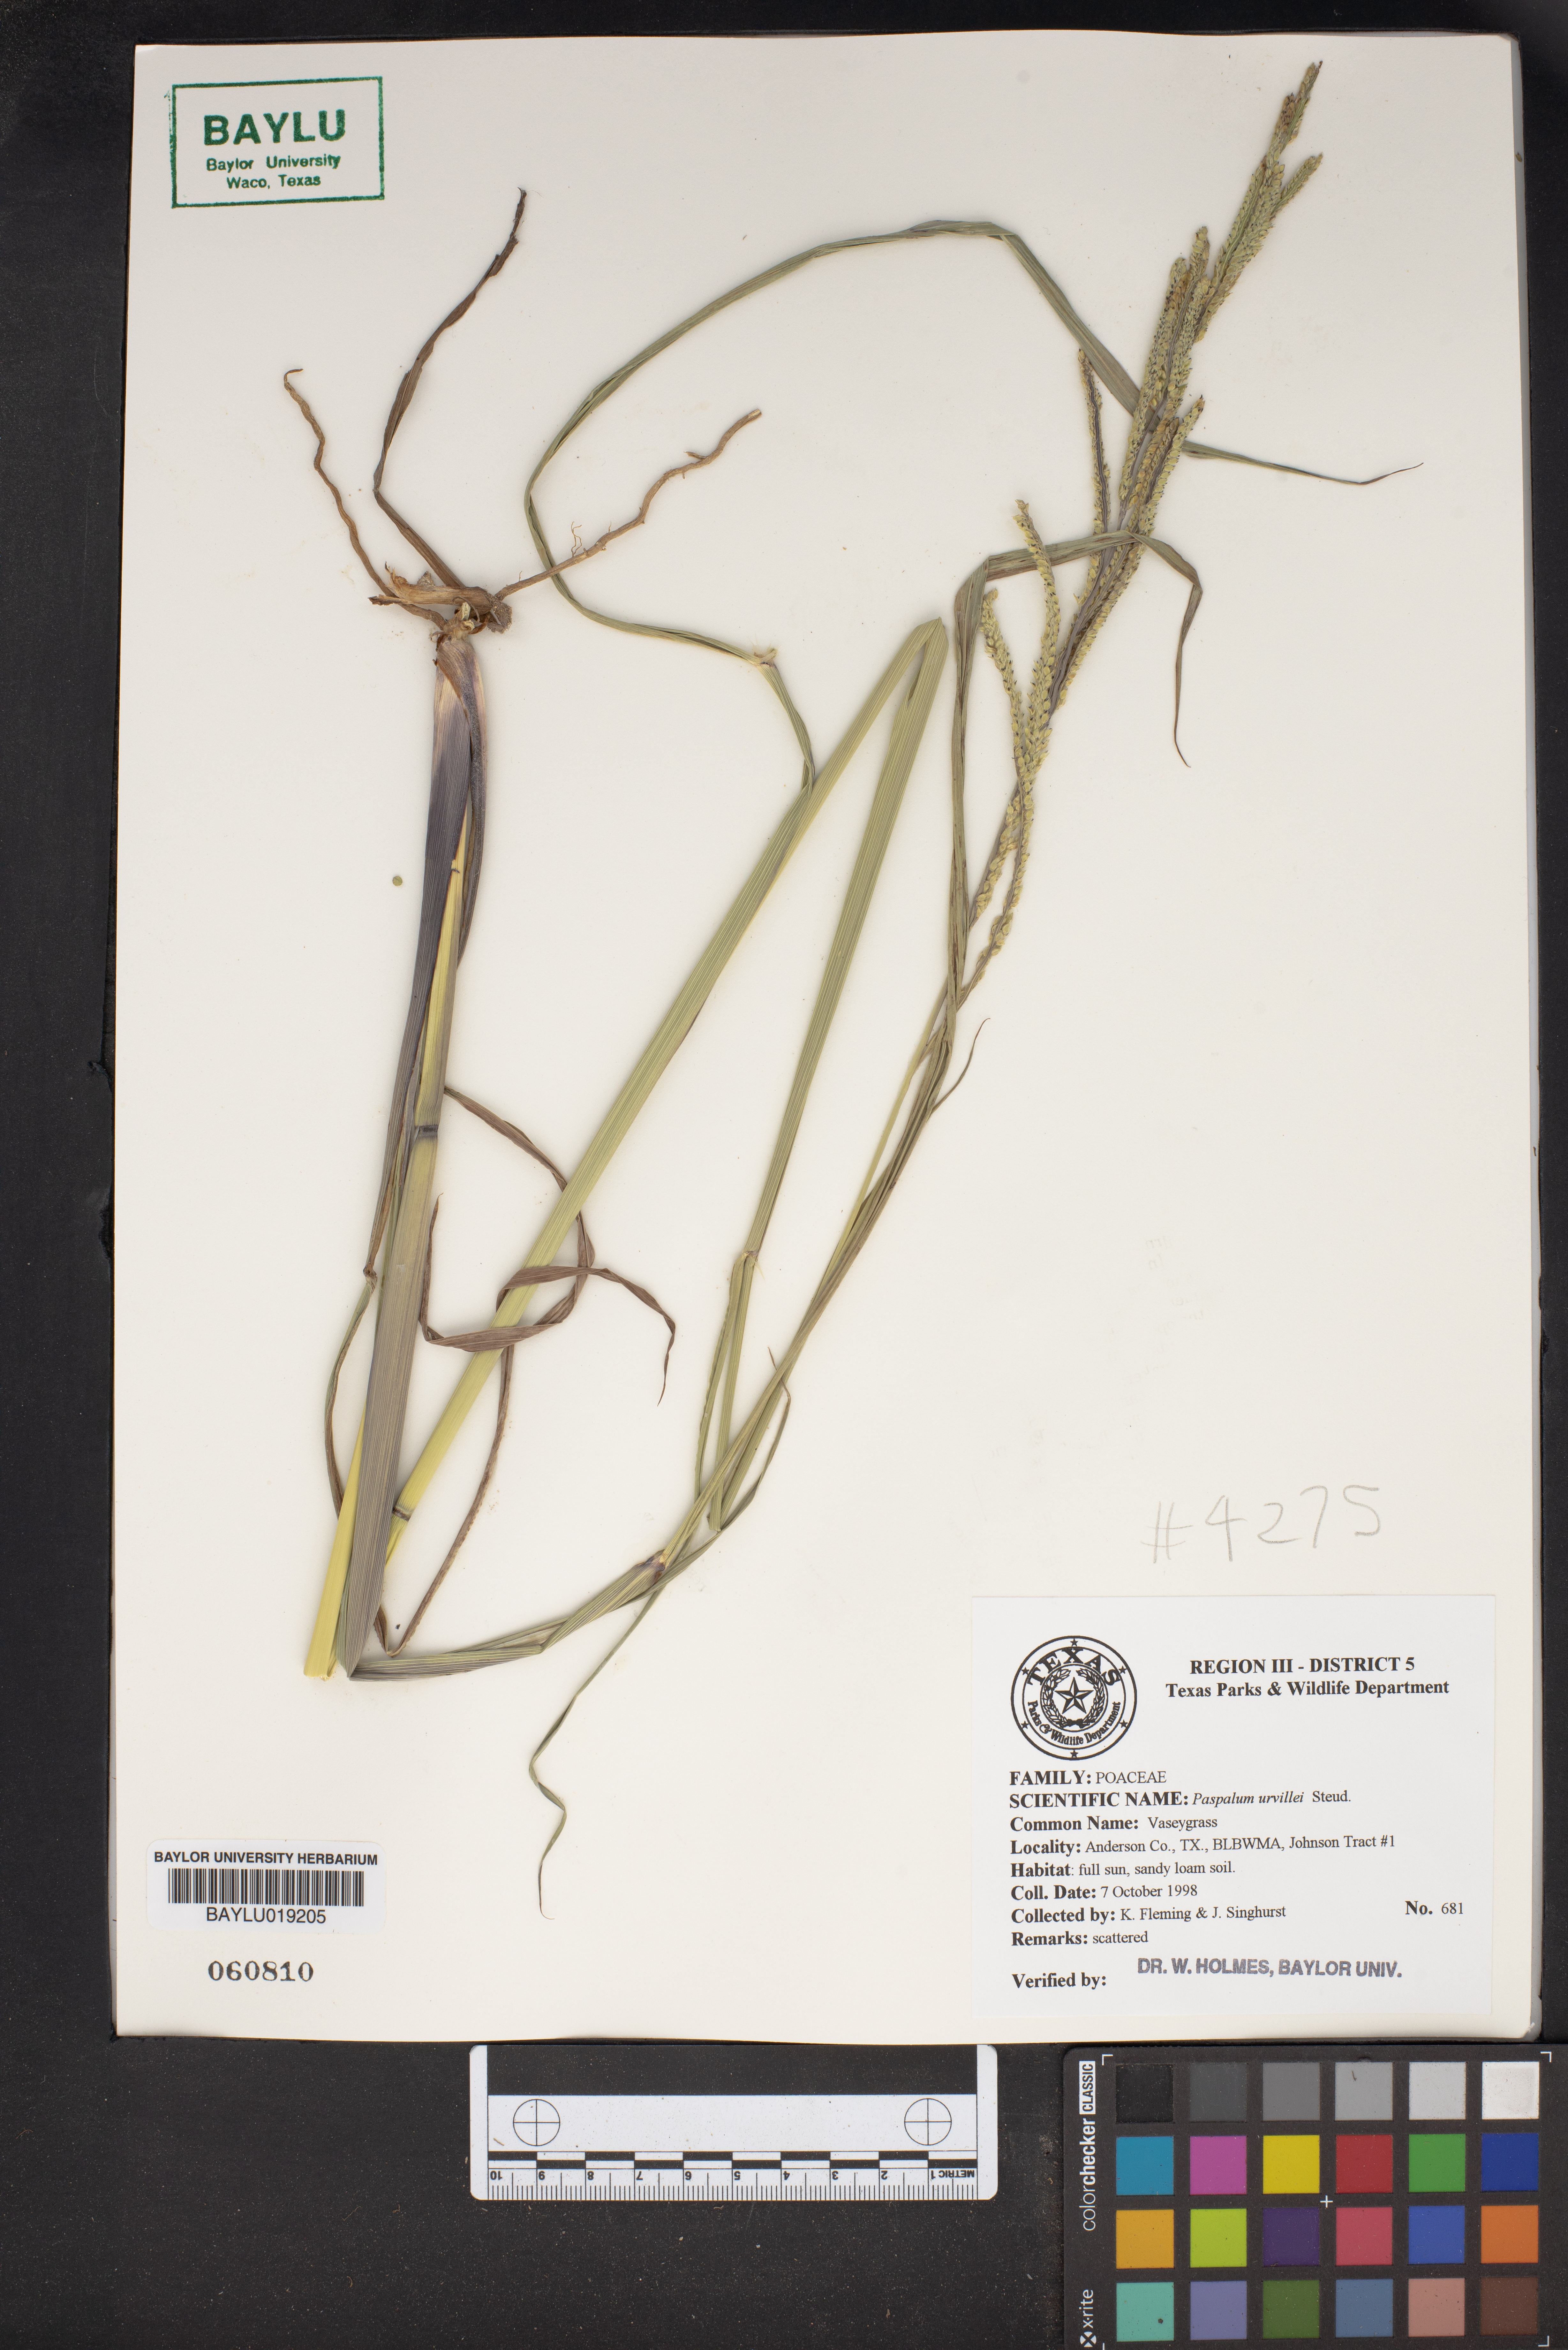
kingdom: Plantae
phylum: Tracheophyta
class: Liliopsida
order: Poales
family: Poaceae
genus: Paspalum
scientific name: Paspalum urvillei
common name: Vasey's grass
